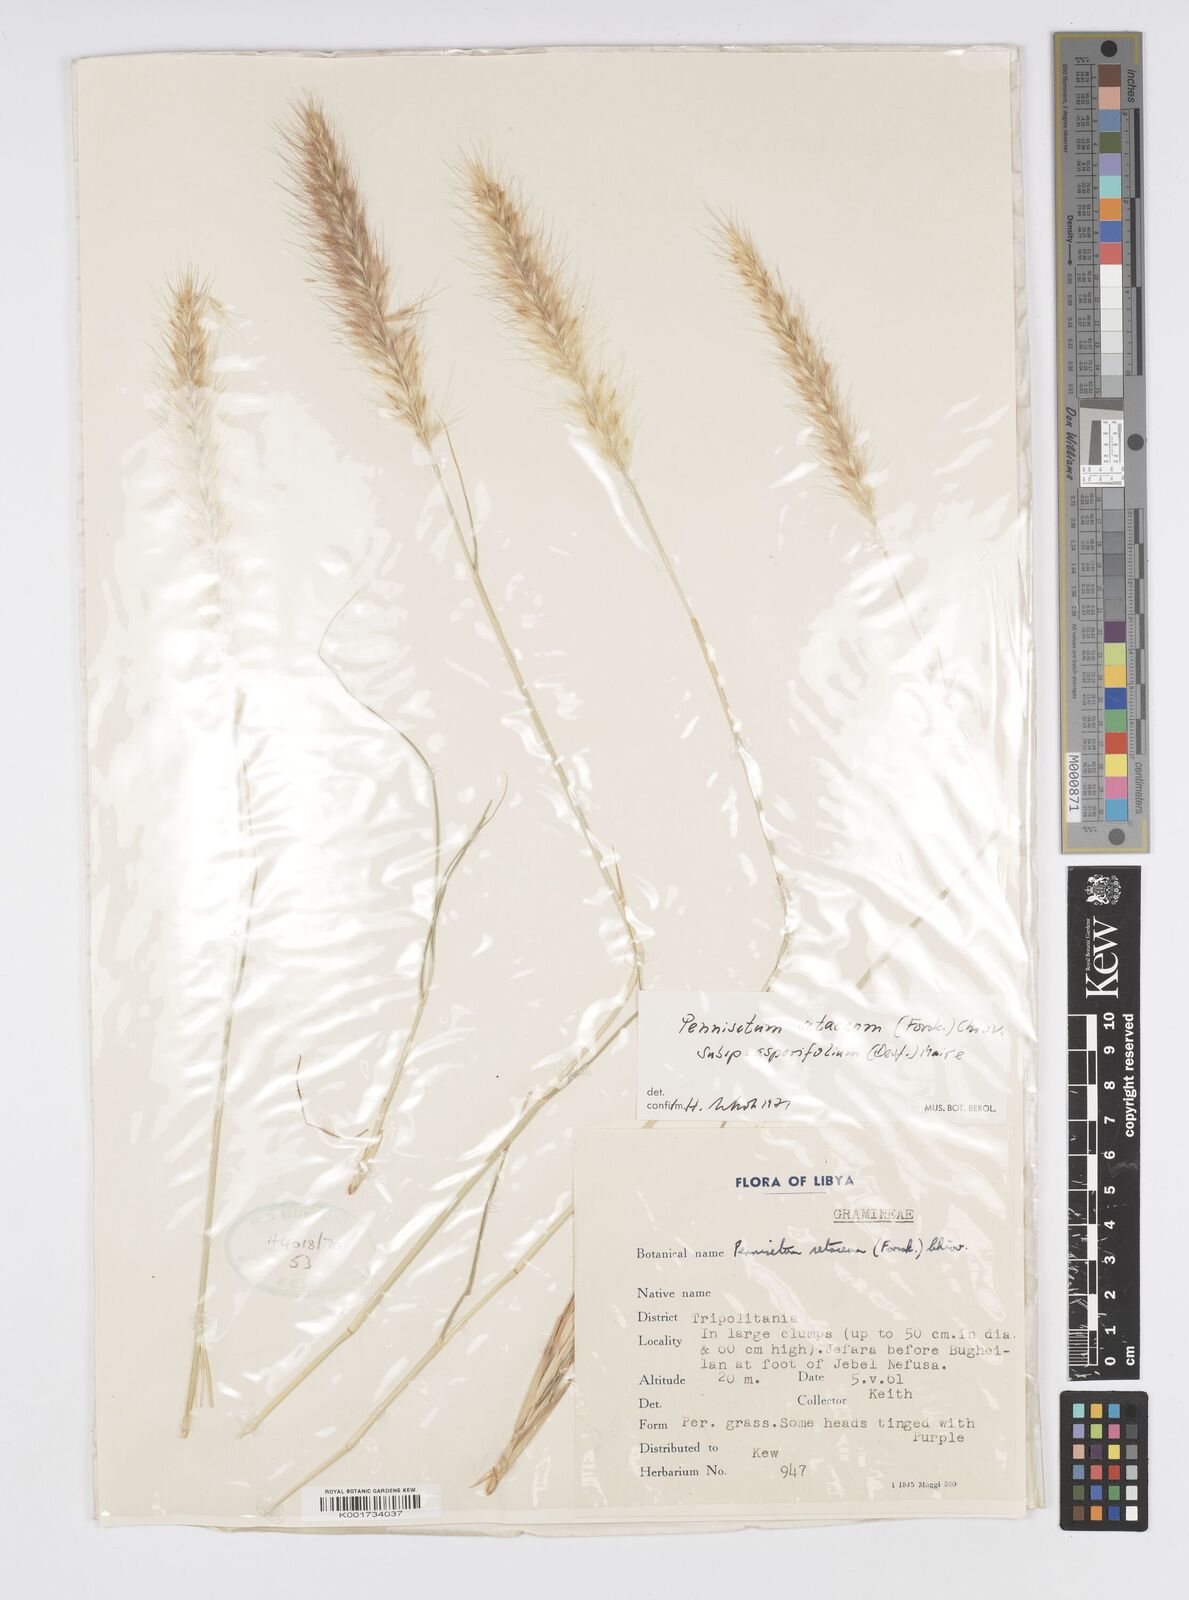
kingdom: Plantae
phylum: Tracheophyta
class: Liliopsida
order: Poales
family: Poaceae
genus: Cenchrus
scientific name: Cenchrus setaceus
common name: Crimson fountaingrass
